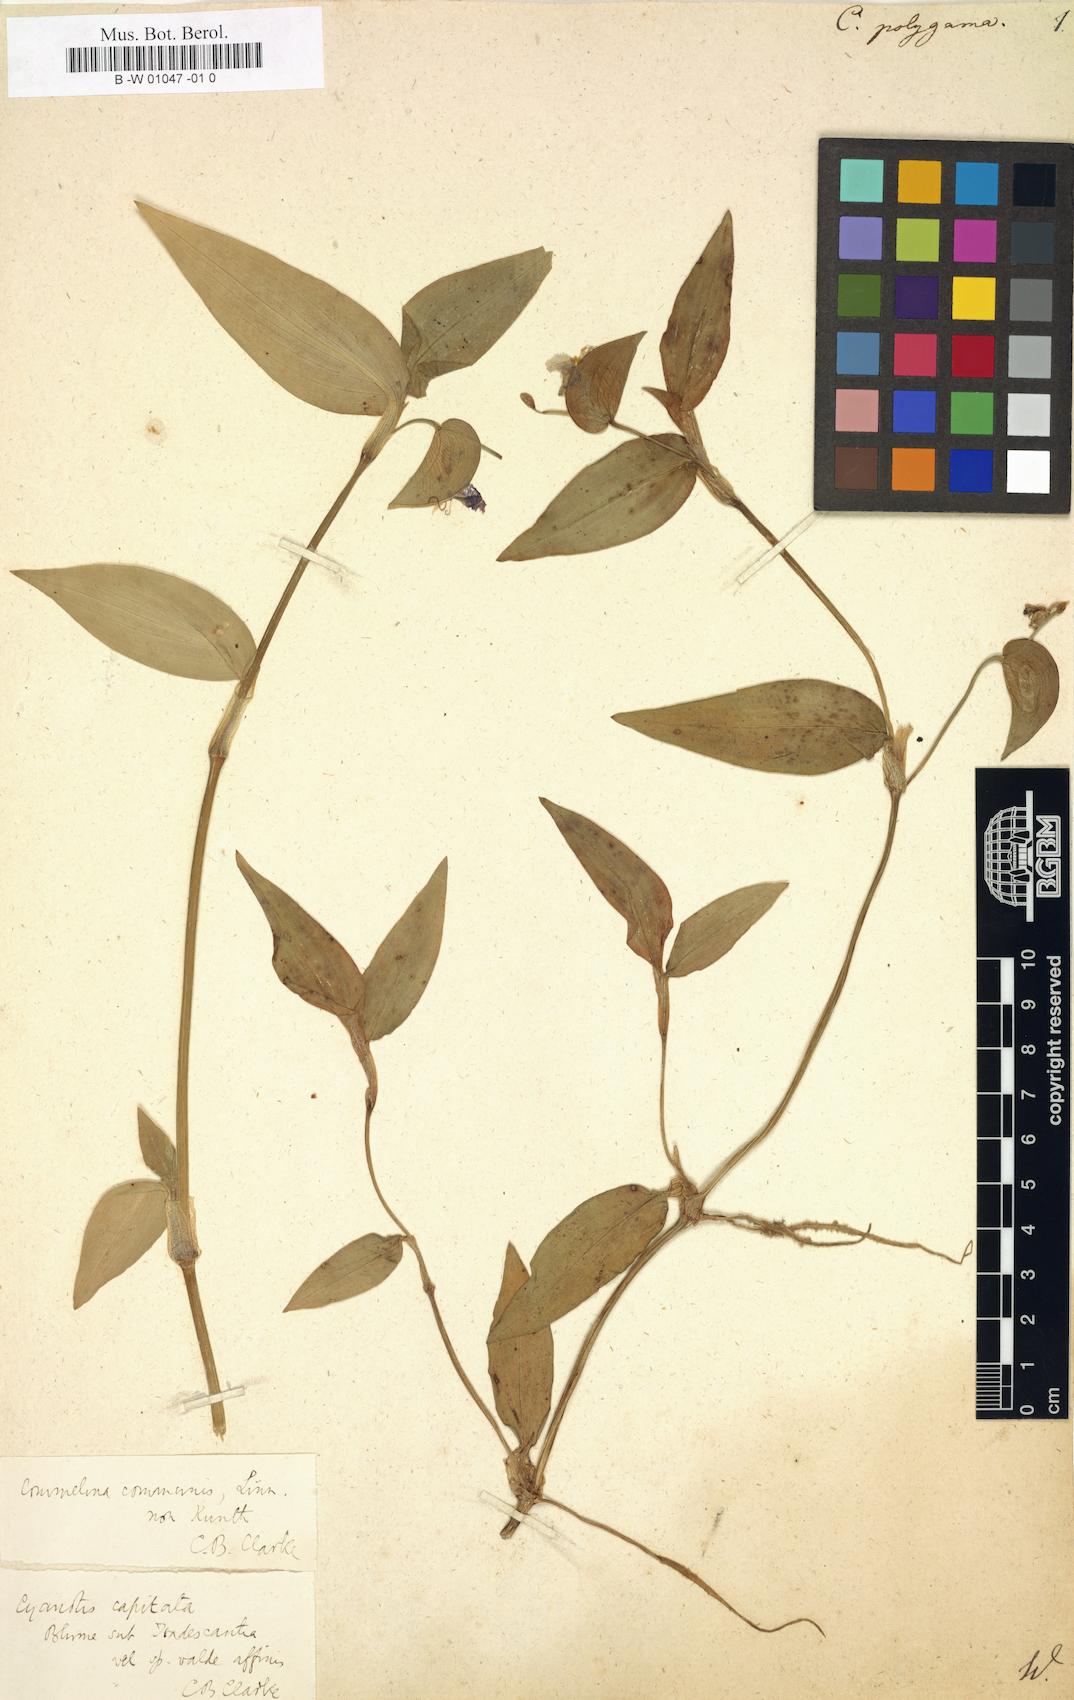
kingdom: Plantae
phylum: Tracheophyta
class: Liliopsida
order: Commelinales
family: Commelinaceae
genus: Commelina
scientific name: Commelina communis
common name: Asiatic dayflower
